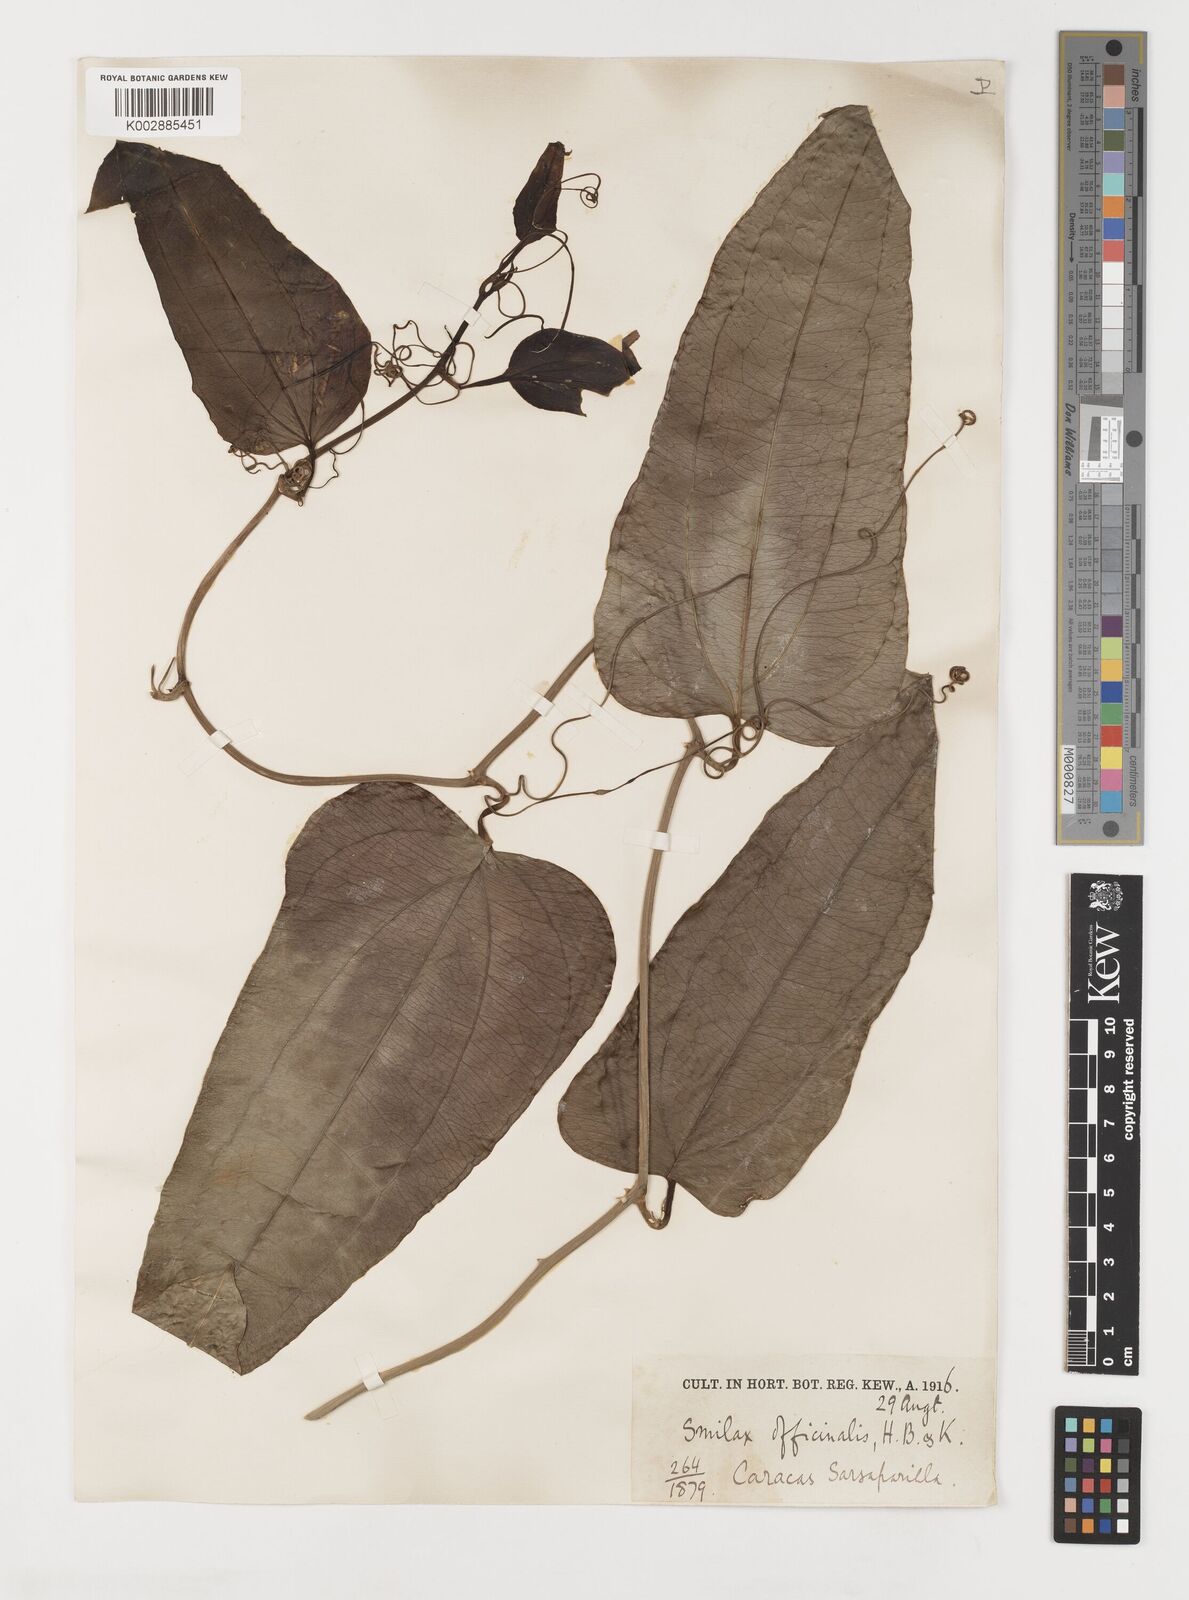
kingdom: Plantae
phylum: Tracheophyta
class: Liliopsida
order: Liliales
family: Smilacaceae
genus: Smilax
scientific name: Smilax
